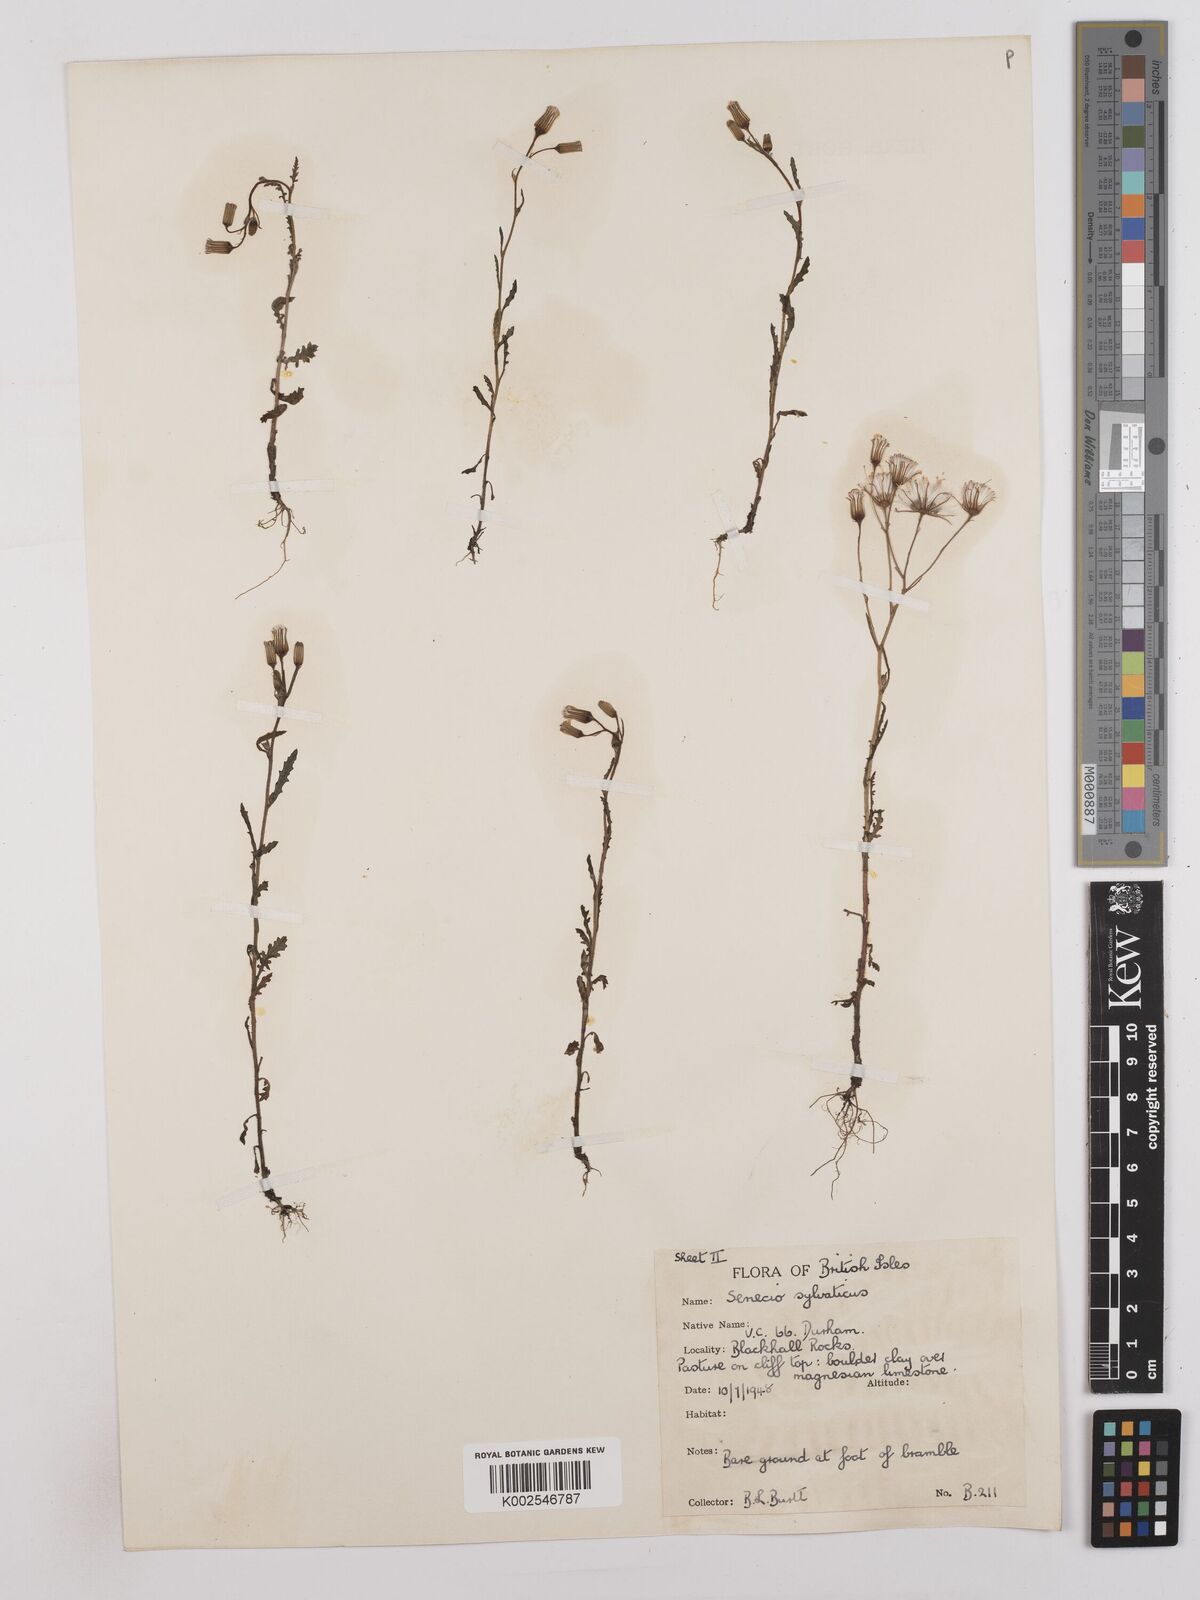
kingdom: Plantae
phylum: Tracheophyta
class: Magnoliopsida
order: Asterales
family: Asteraceae
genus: Senecio
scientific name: Senecio sylvaticus
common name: Woodland ragwort
